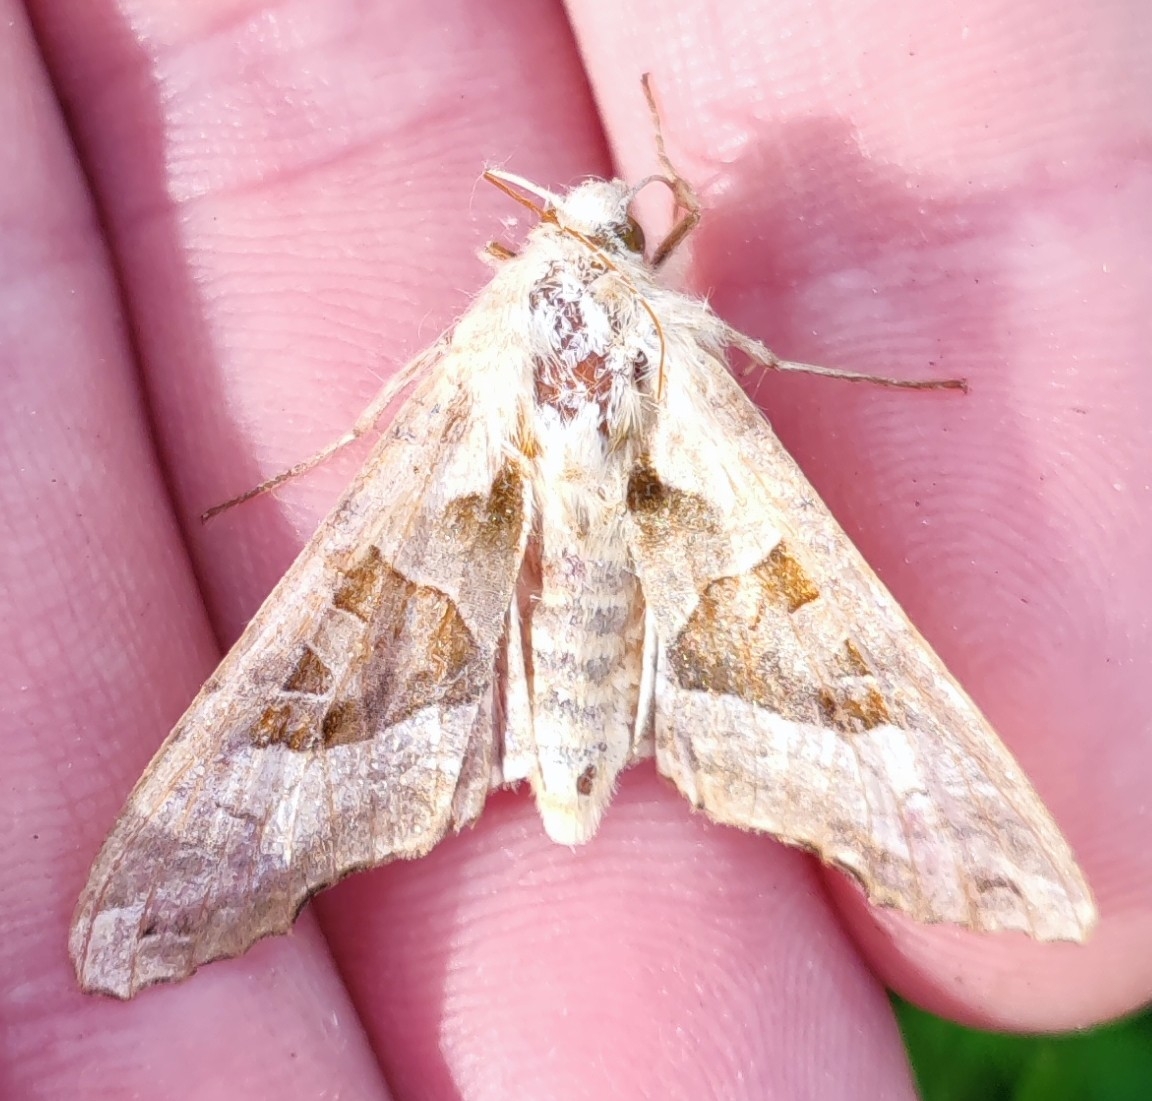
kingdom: Animalia
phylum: Arthropoda
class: Insecta
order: Lepidoptera
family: Noctuidae
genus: Phlogophora
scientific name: Phlogophora meticulosa
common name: Agatugle
